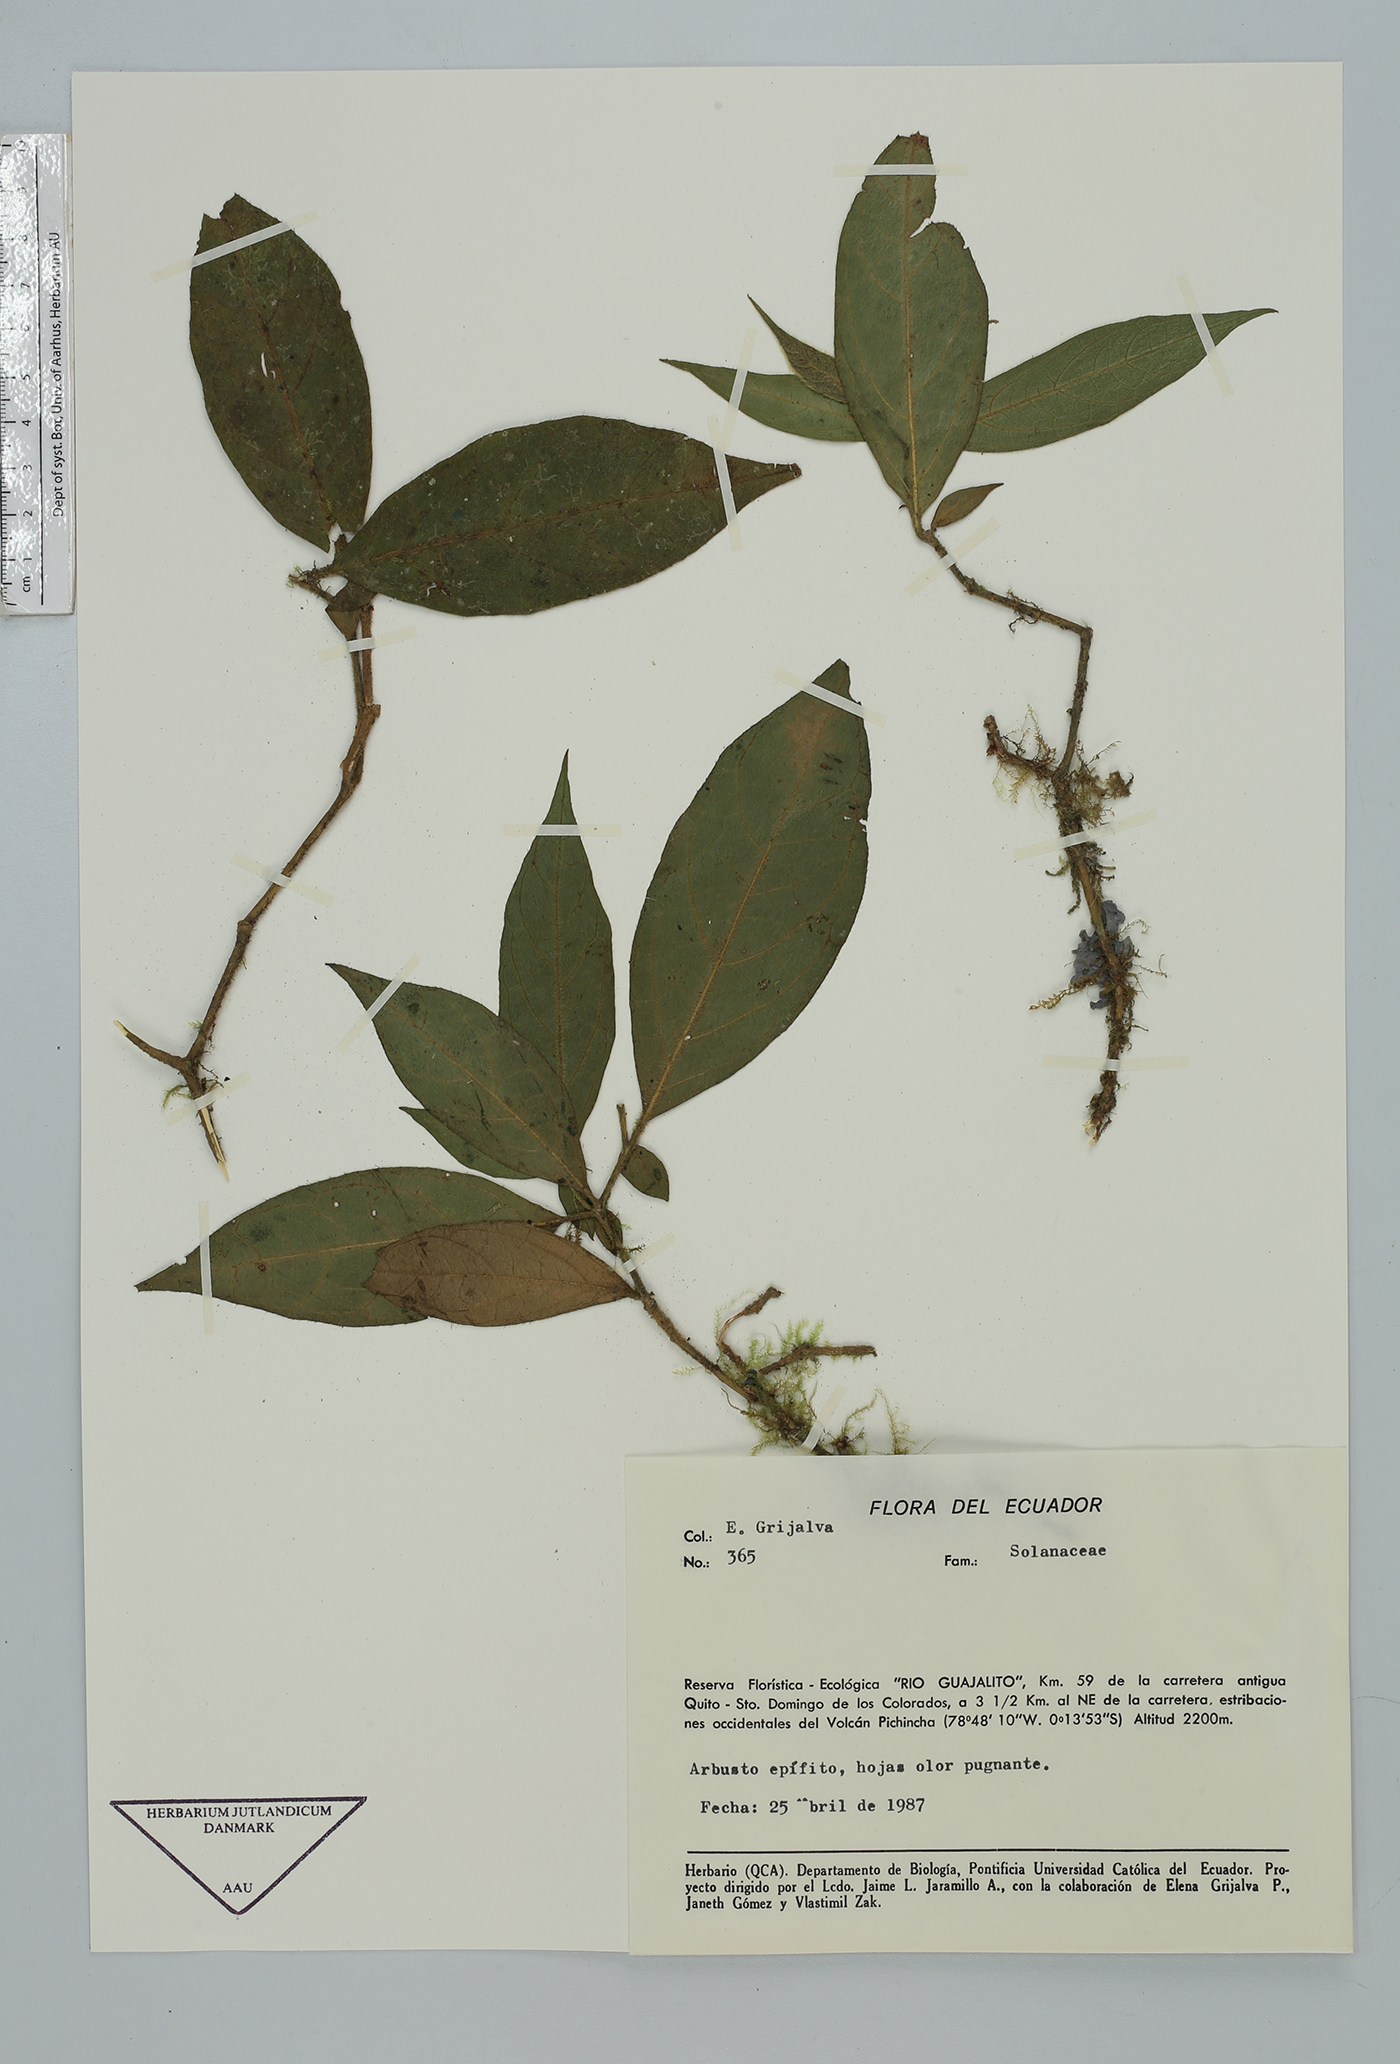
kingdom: Plantae
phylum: Tracheophyta
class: Magnoliopsida
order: Solanales
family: Solanaceae
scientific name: Solanaceae
